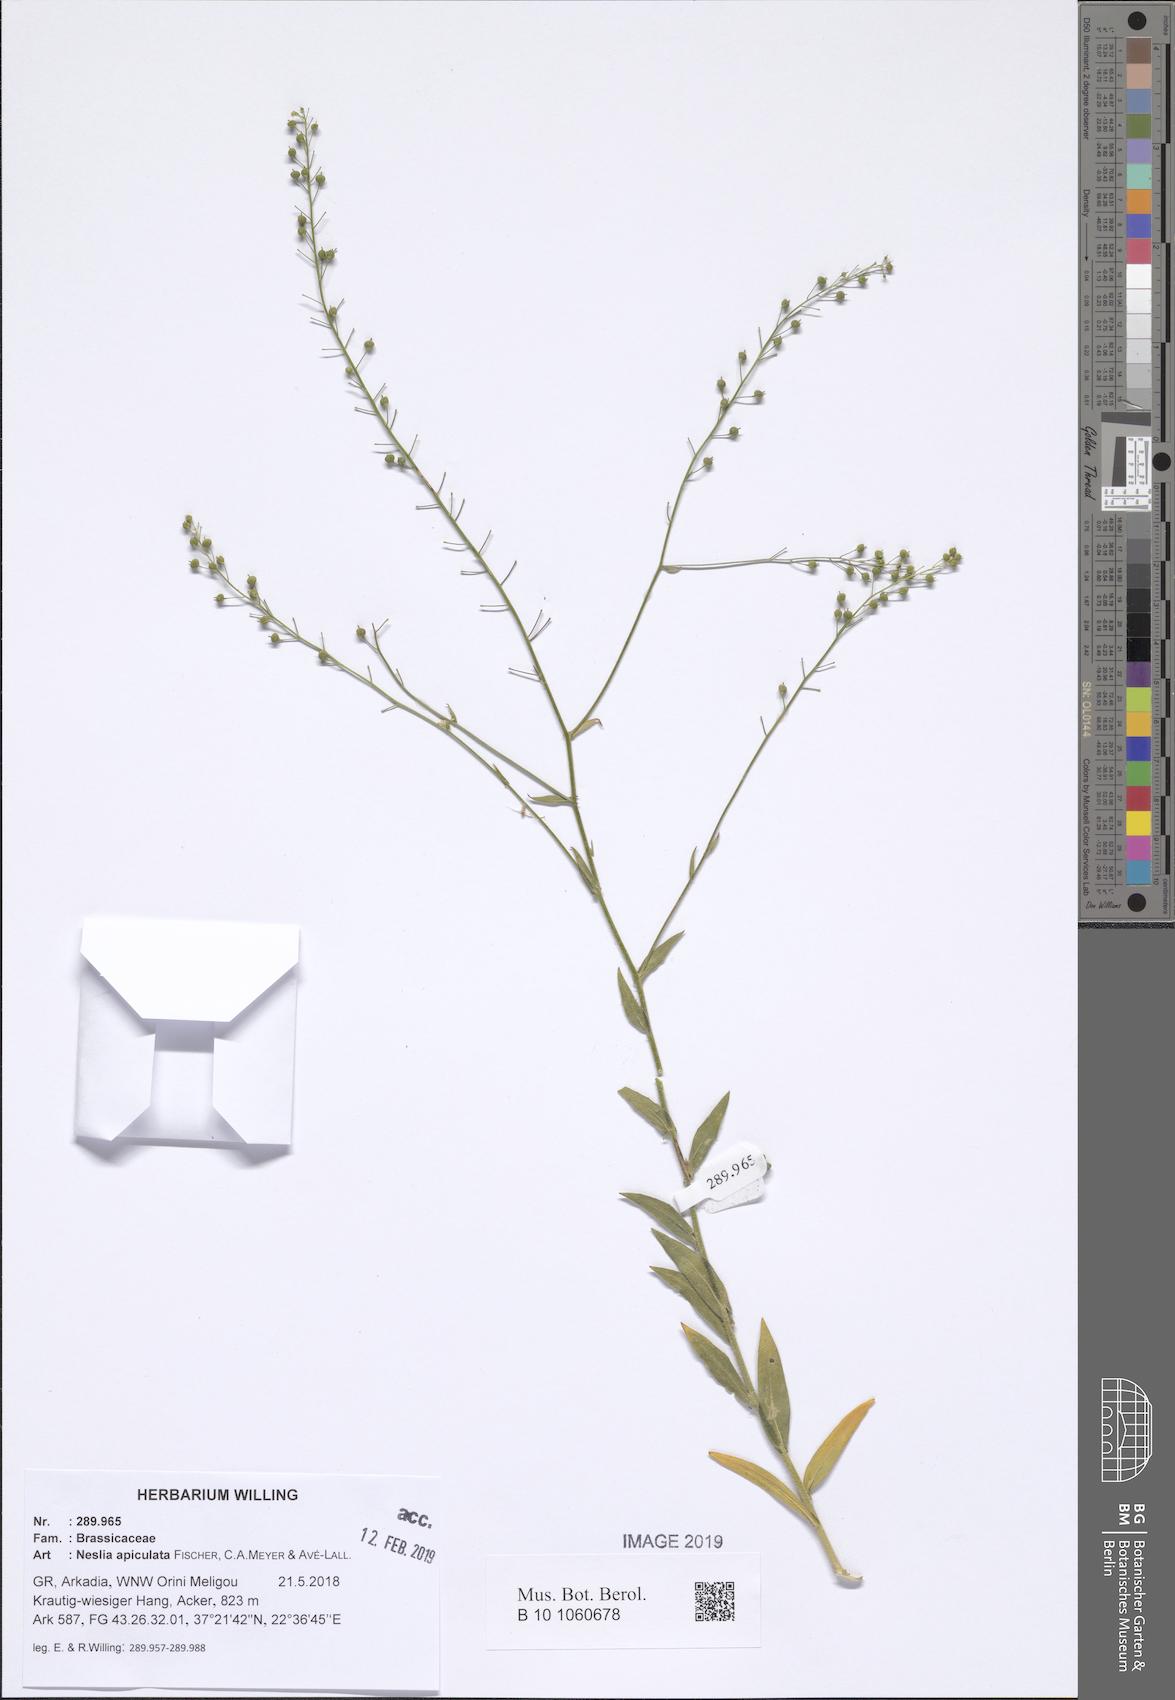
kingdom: Plantae
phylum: Tracheophyta
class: Magnoliopsida
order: Brassicales
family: Brassicaceae
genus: Neslia
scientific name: Neslia paniculata
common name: Ball mustard
